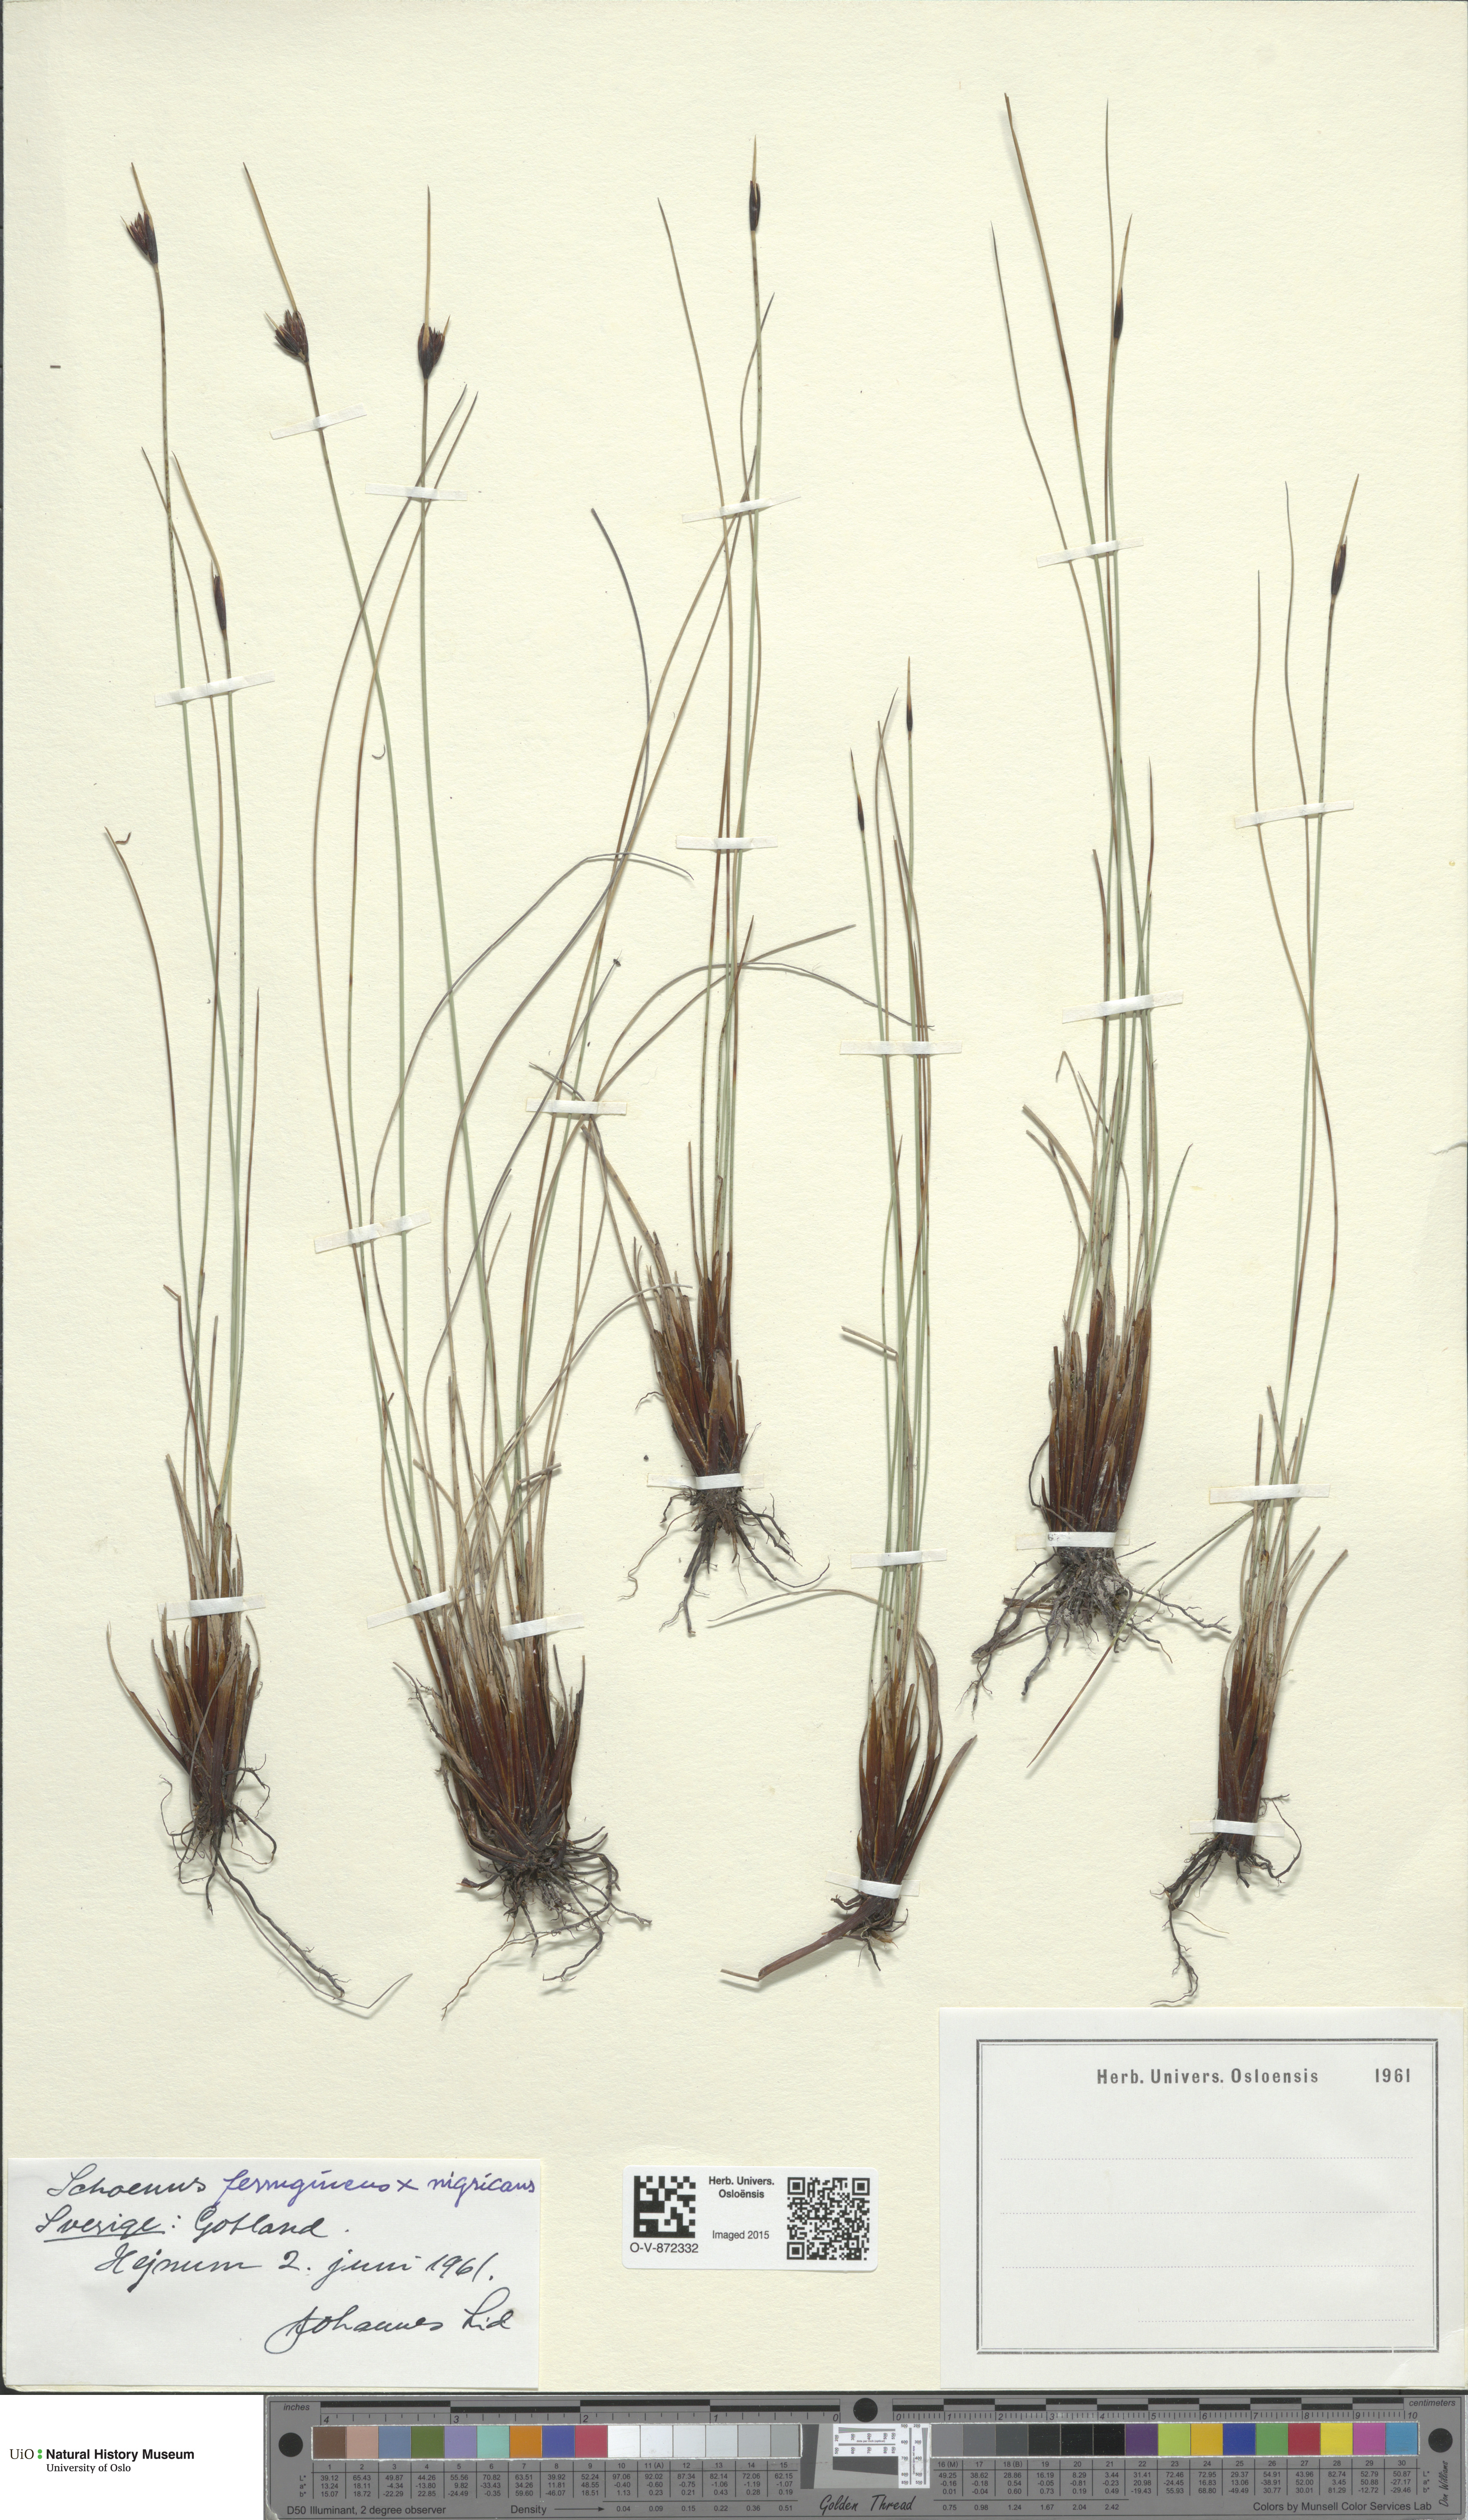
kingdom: Plantae
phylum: Tracheophyta
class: Liliopsida
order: Poales
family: Cyperaceae
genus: Schoenus
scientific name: Schoenus
